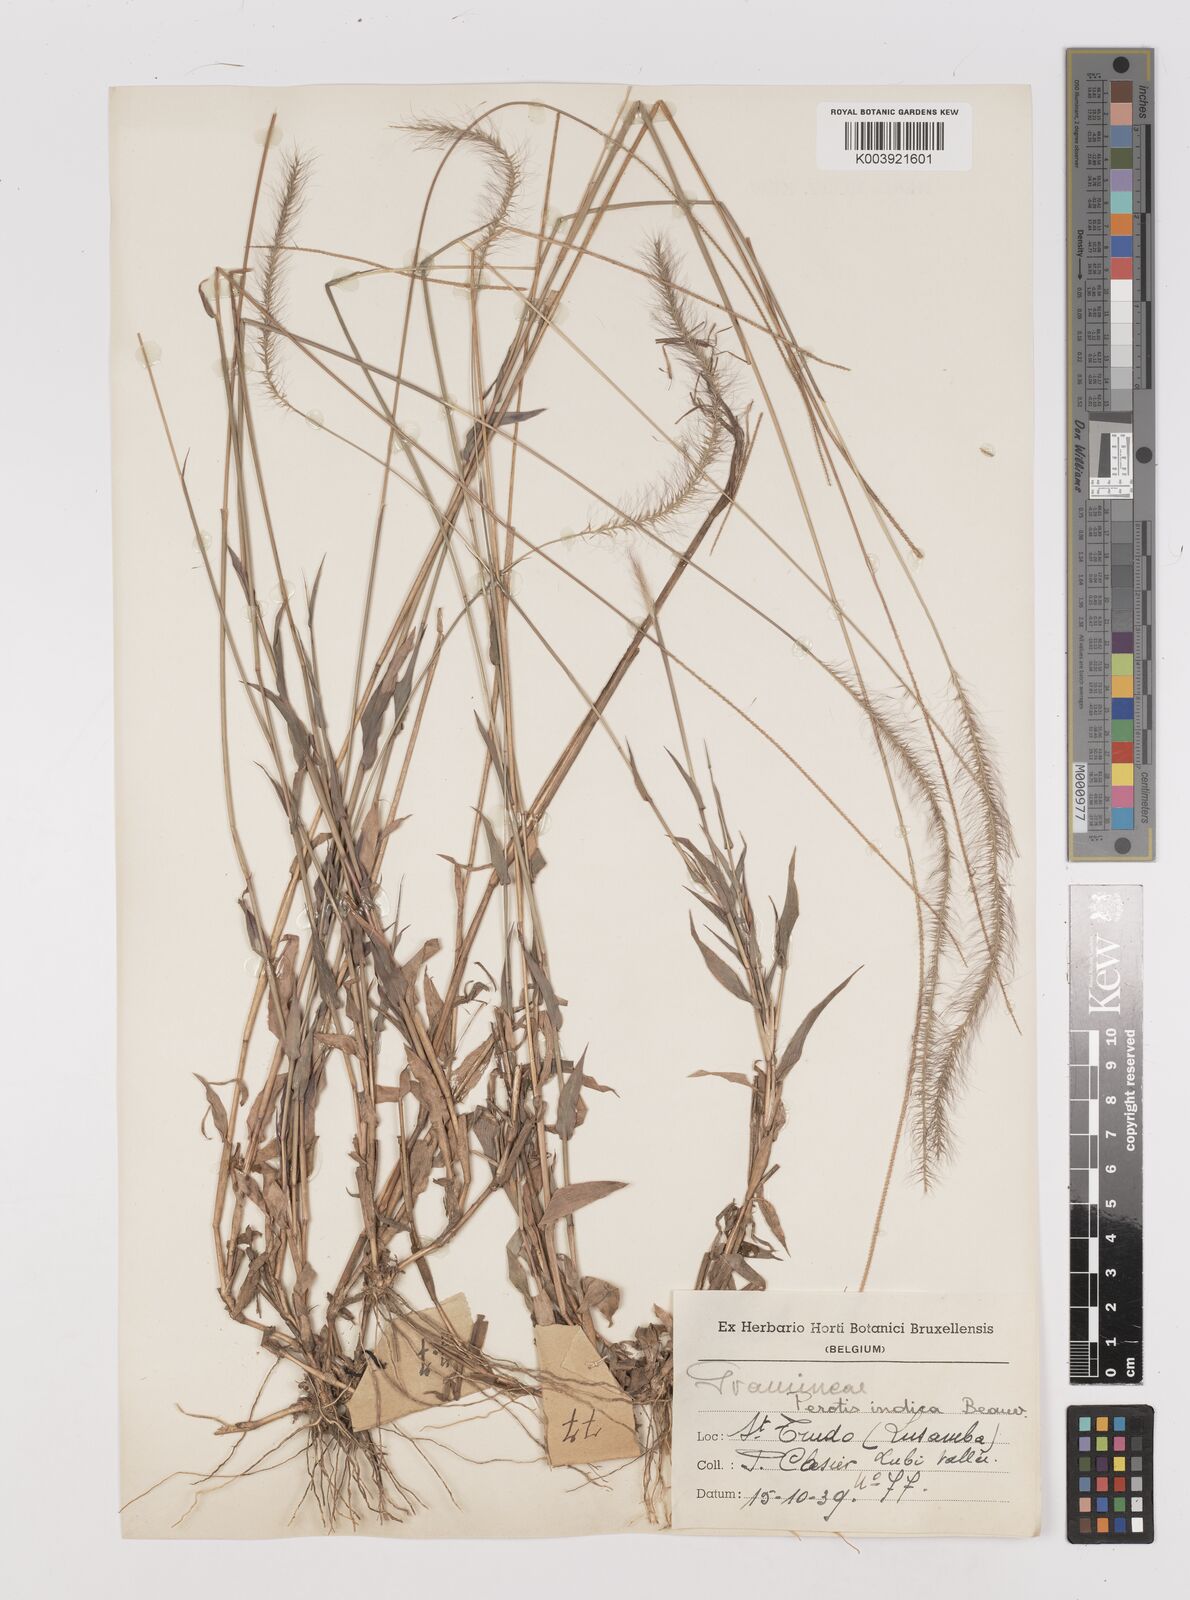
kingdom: Plantae
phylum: Tracheophyta
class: Liliopsida
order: Poales
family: Poaceae
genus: Perotis
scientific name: Perotis patens
